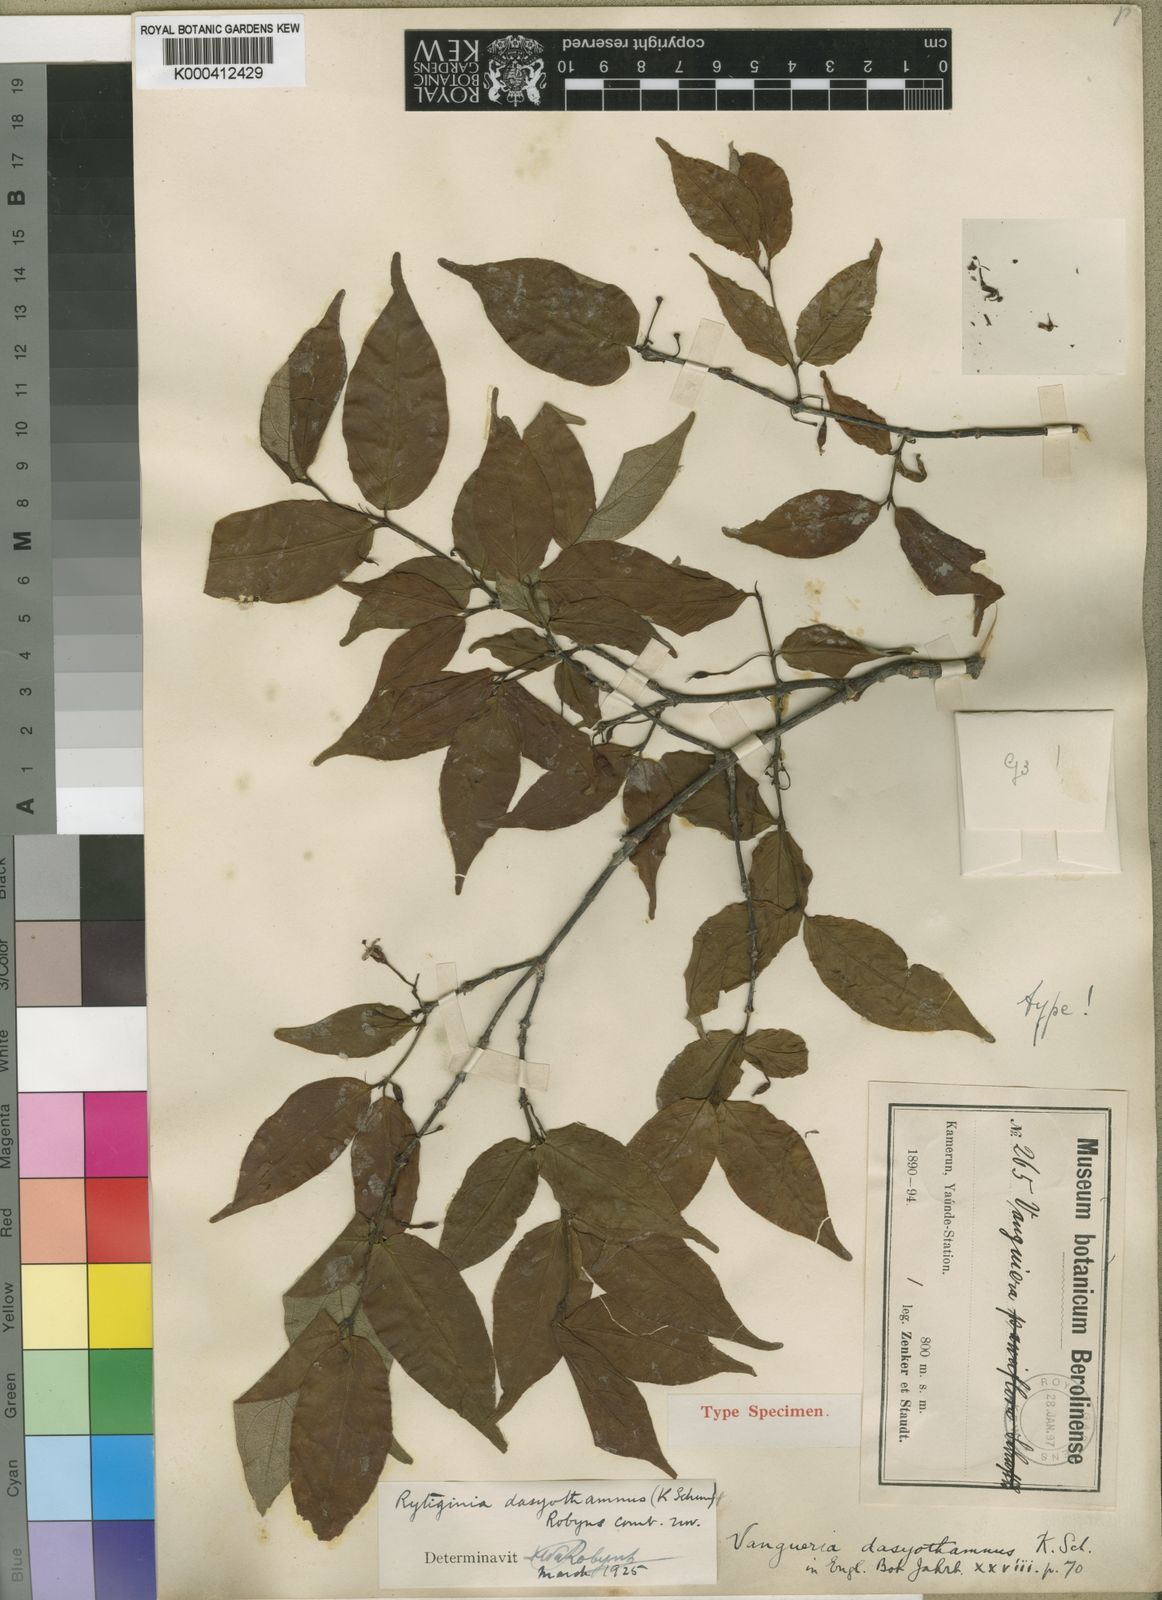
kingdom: Plantae
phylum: Tracheophyta
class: Magnoliopsida
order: Gentianales
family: Rubiaceae
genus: Rytigynia
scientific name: Rytigynia dasyothamnus
